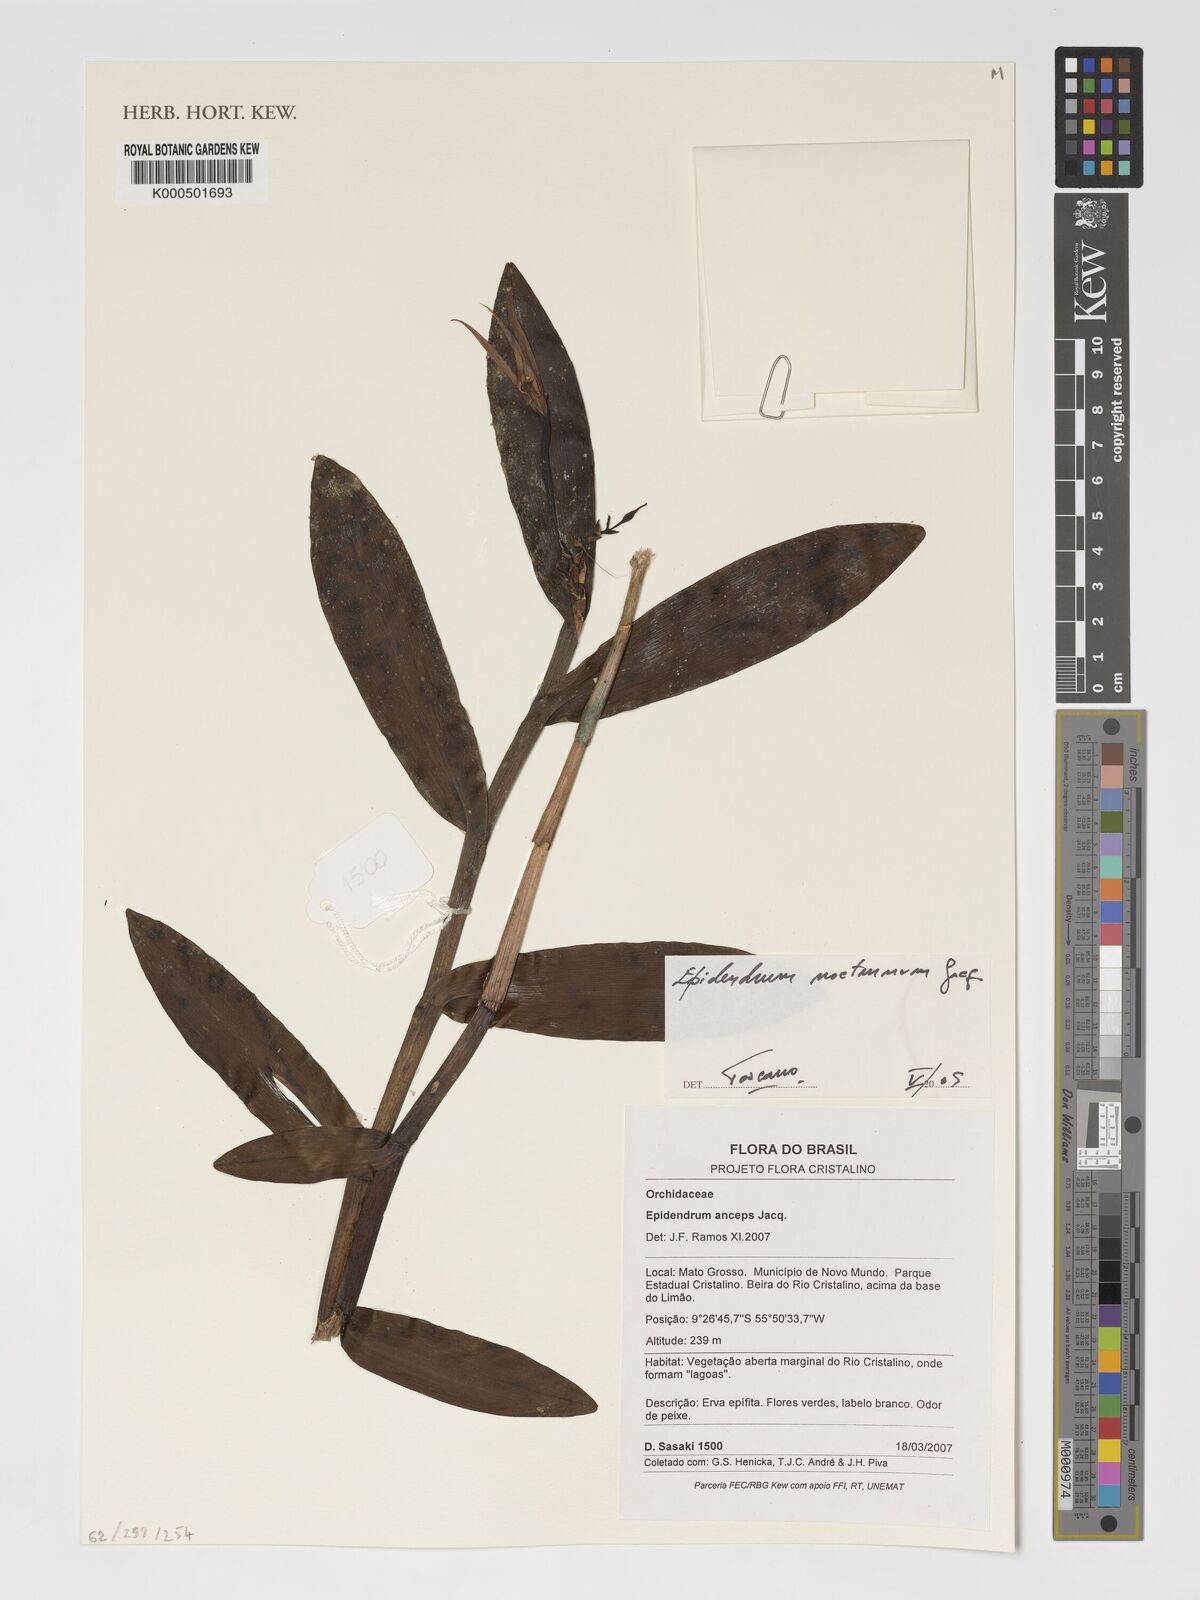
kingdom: Plantae
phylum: Tracheophyta
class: Liliopsida
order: Asparagales
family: Orchidaceae
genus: Epidendrum
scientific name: Epidendrum nocturnum
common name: Night scented orchid
